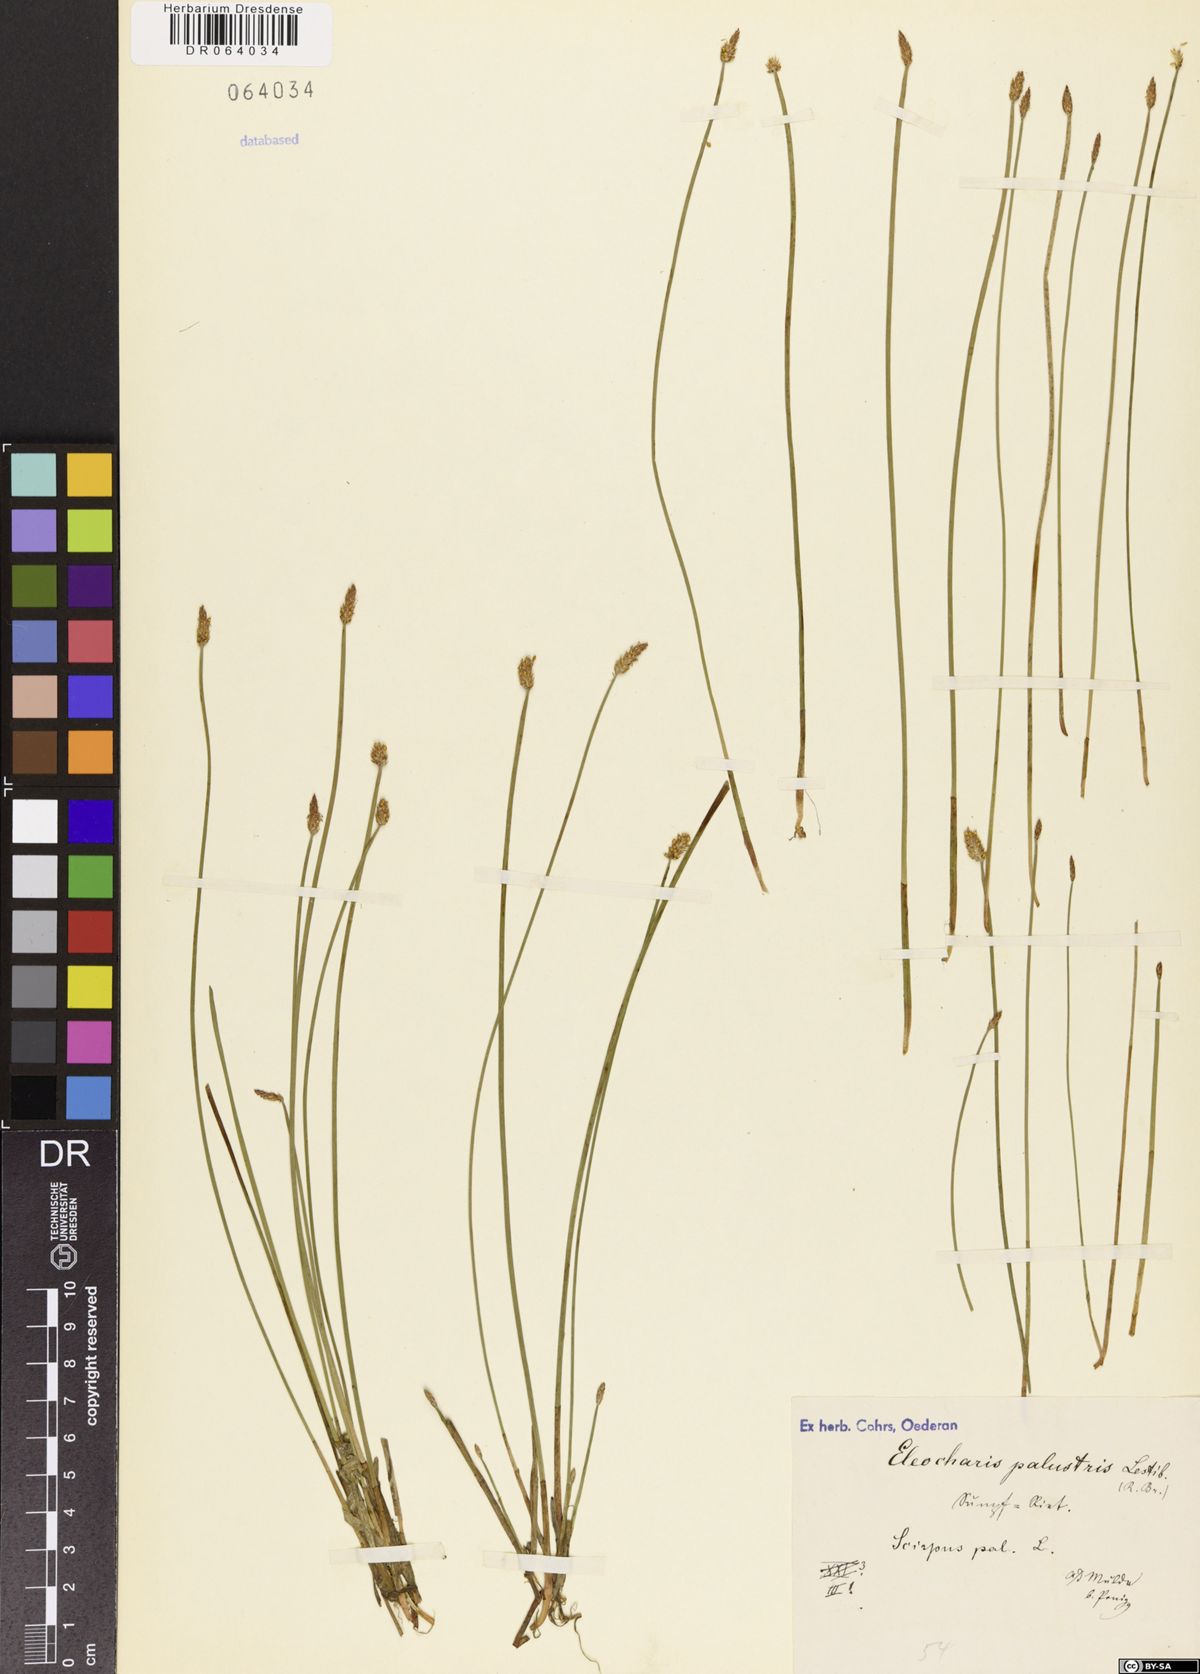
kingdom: Plantae
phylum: Tracheophyta
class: Liliopsida
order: Poales
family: Cyperaceae
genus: Eleocharis
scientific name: Eleocharis palustris
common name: Common spike-rush
